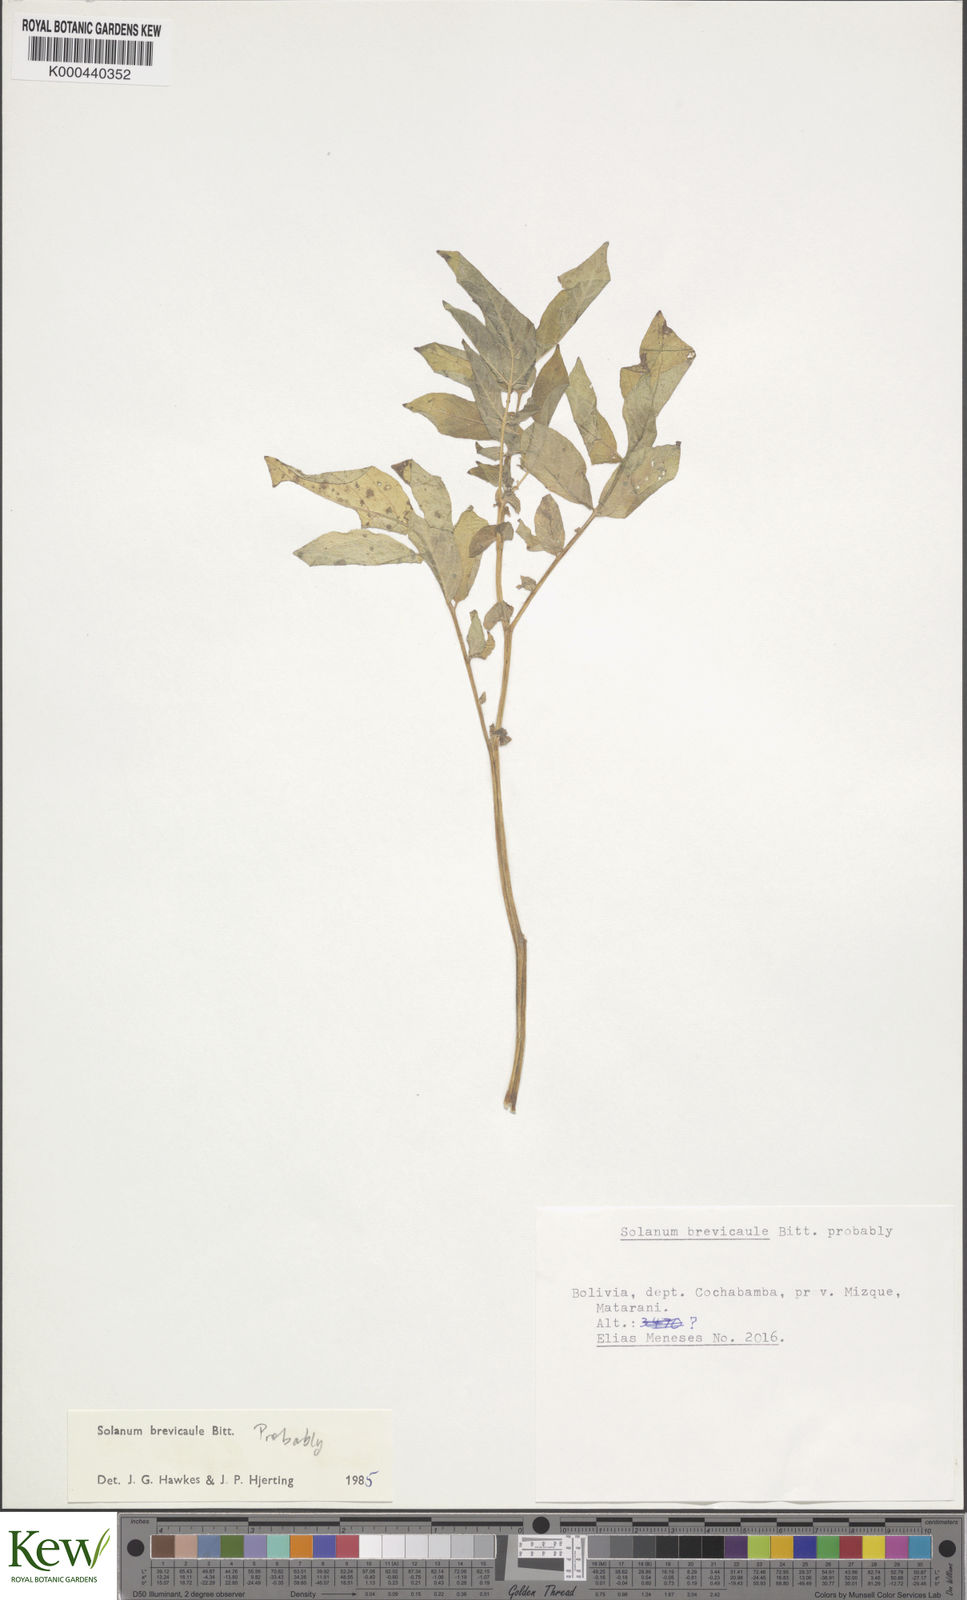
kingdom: Plantae
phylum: Tracheophyta
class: Magnoliopsida
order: Solanales
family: Solanaceae
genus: Solanum
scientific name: Solanum brevicaule
